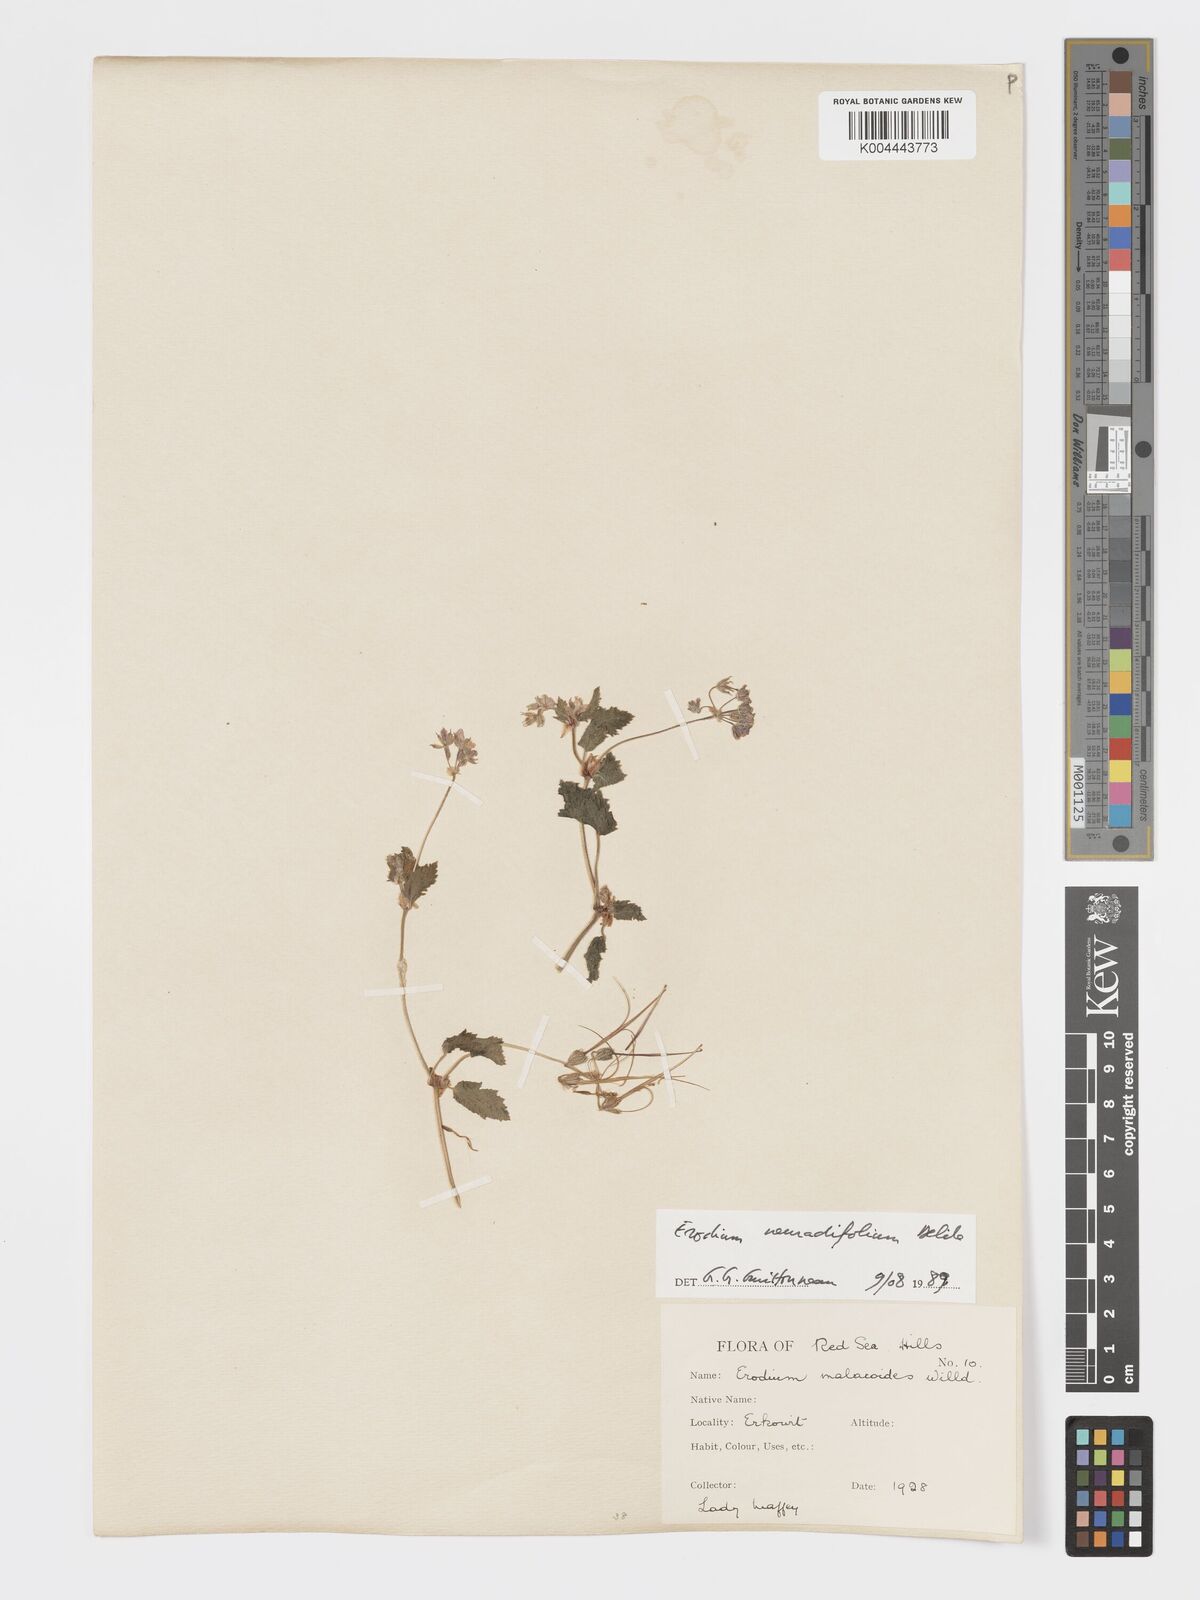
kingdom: Plantae
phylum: Tracheophyta
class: Magnoliopsida
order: Geraniales
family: Geraniaceae
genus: Erodium
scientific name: Erodium neuradifolium
